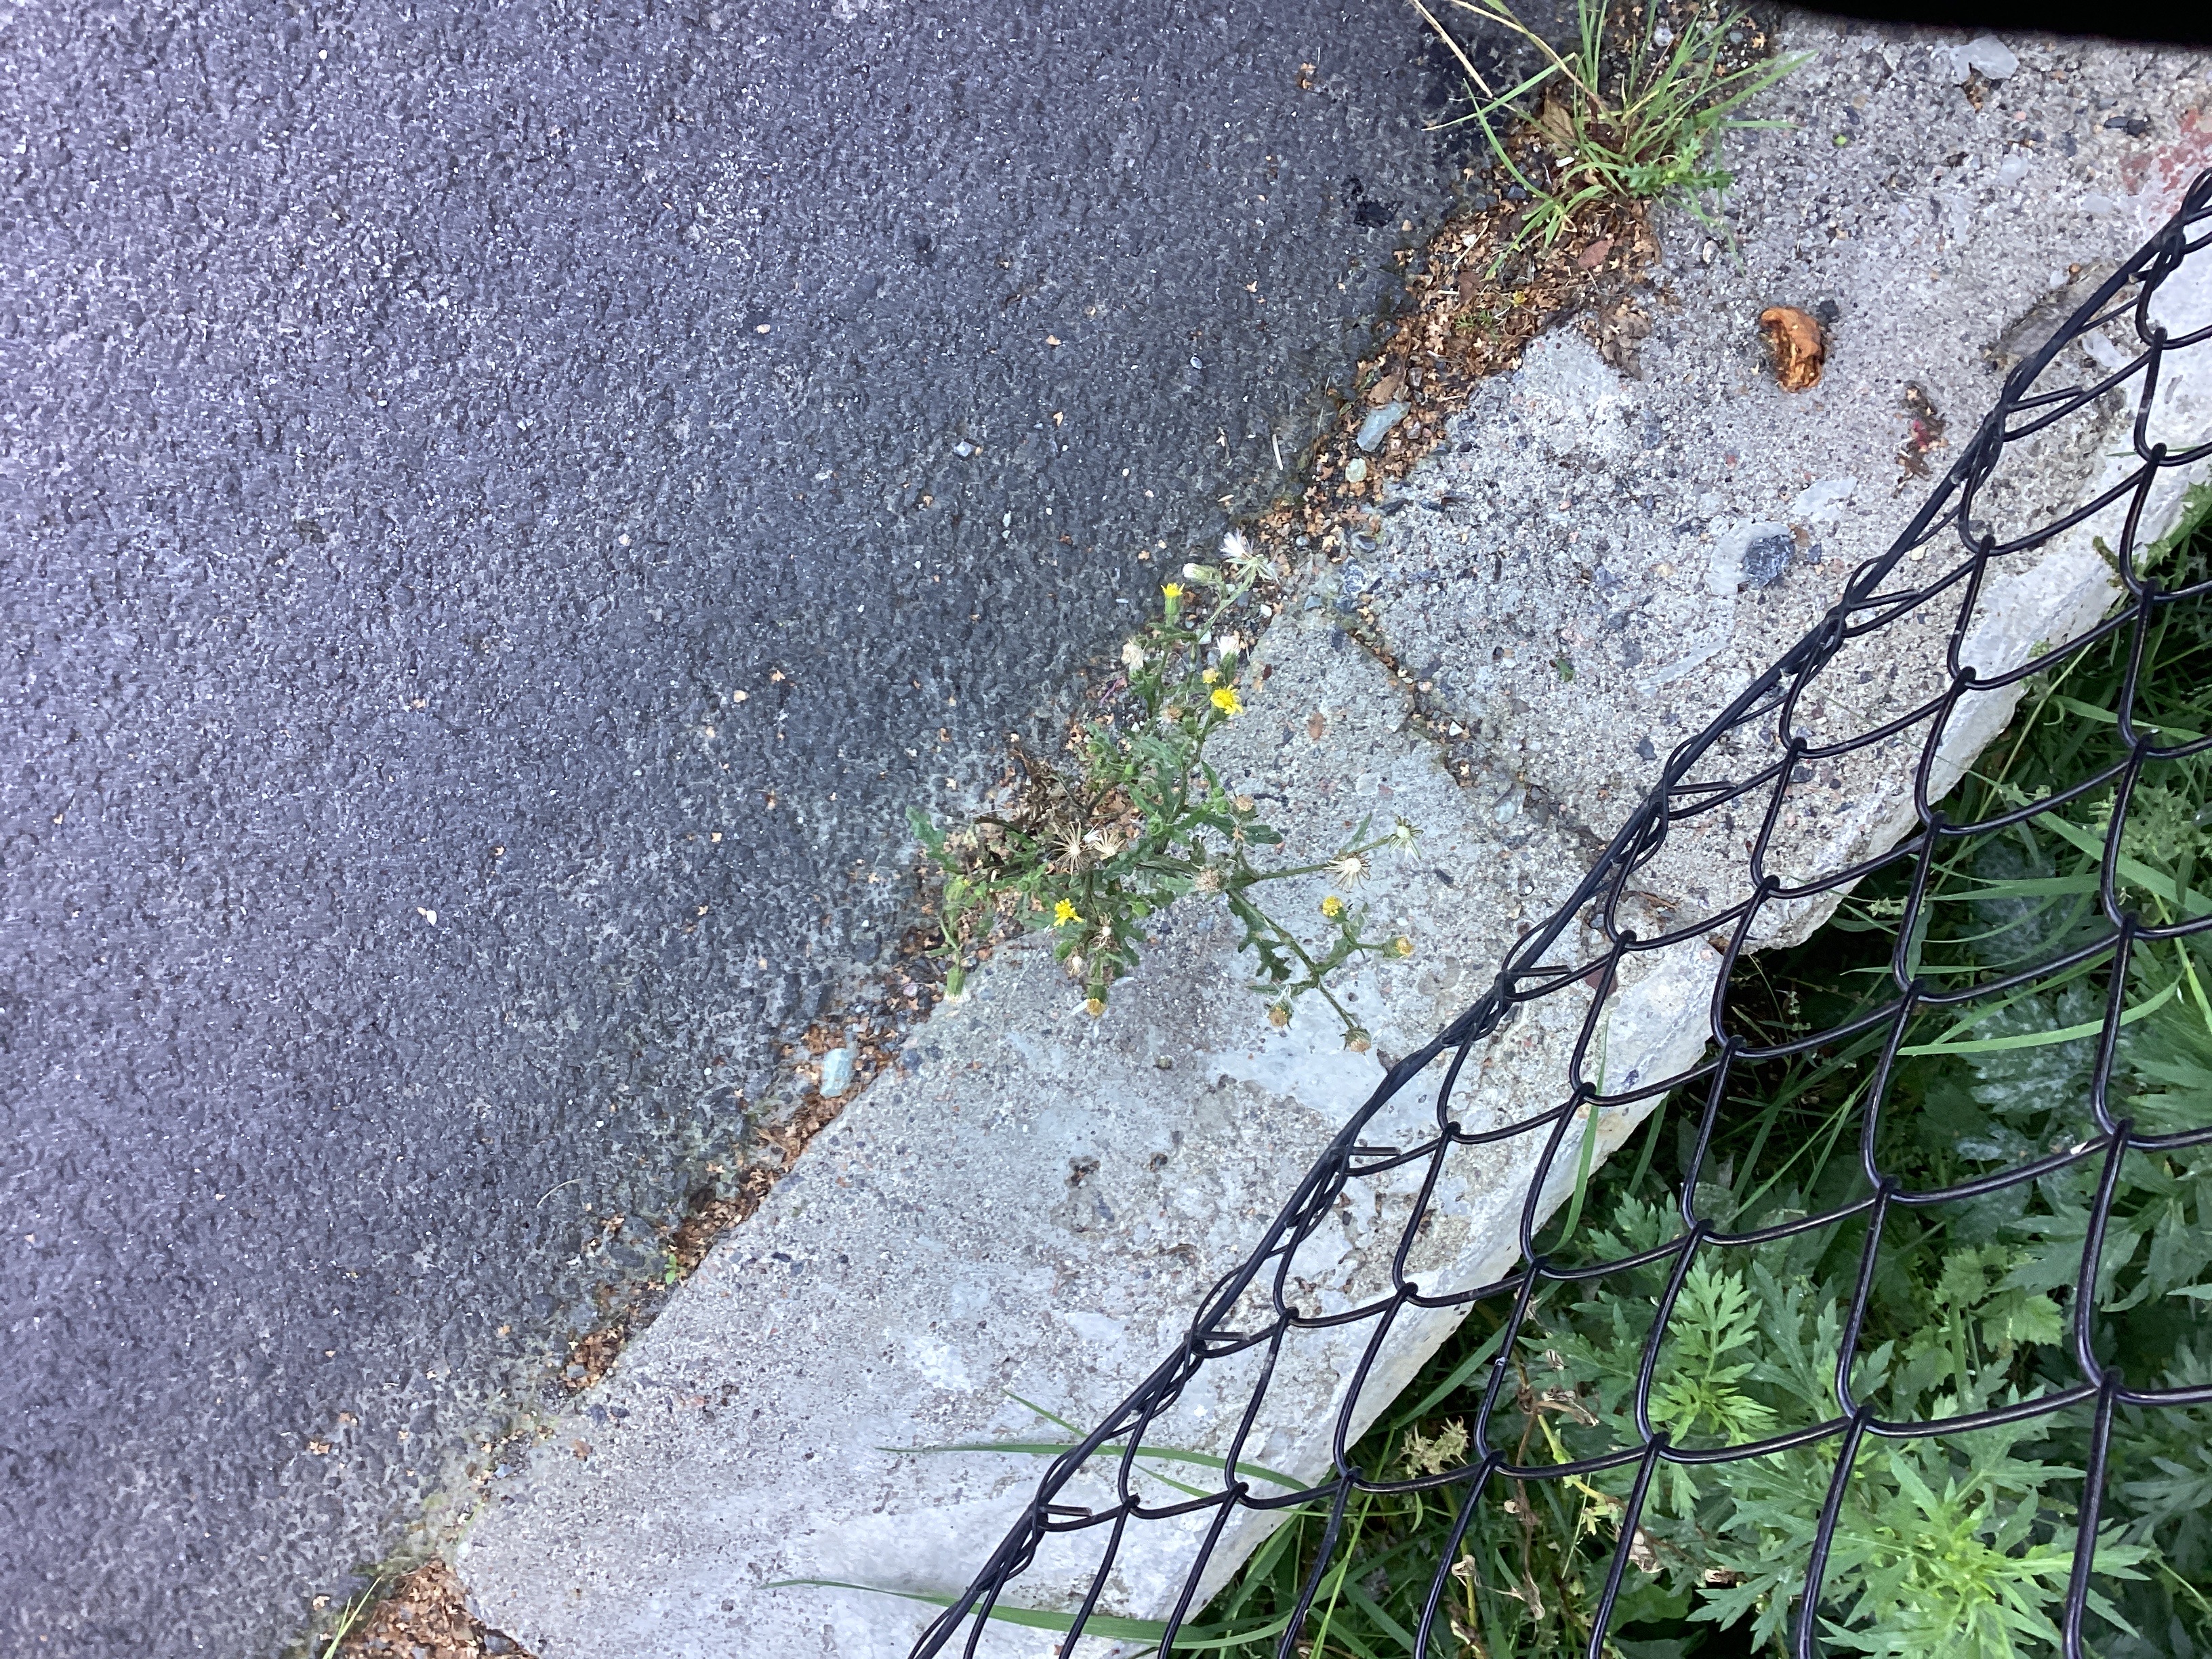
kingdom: Plantae
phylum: Tracheophyta
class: Magnoliopsida
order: Asterales
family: Asteraceae
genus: Senecio
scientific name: Senecio viscosus
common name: klistersvineblom
